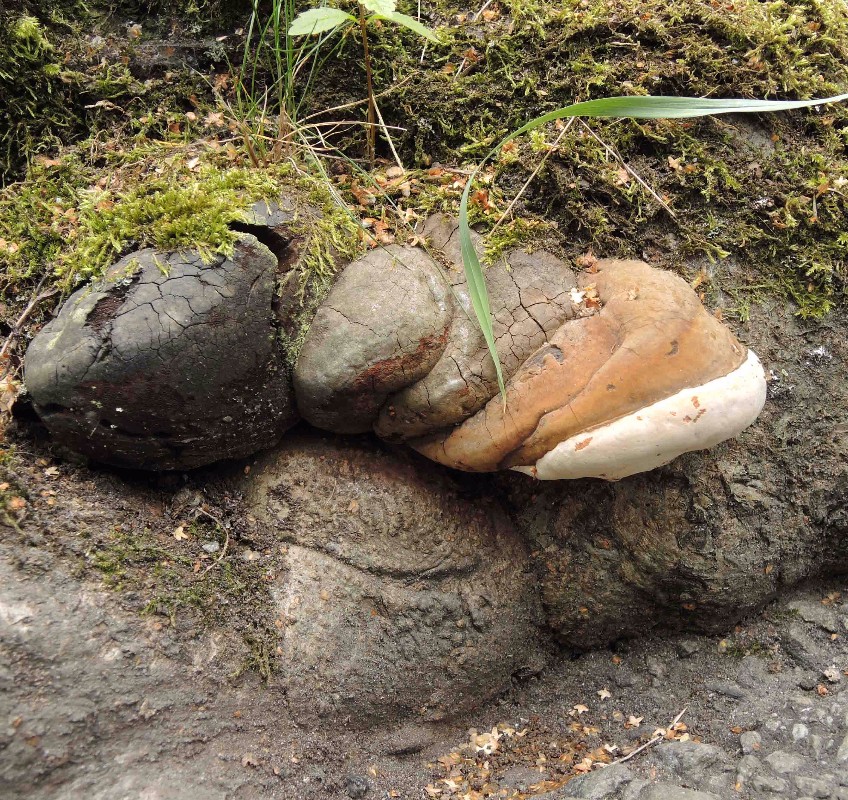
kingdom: Fungi
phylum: Basidiomycota
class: Agaricomycetes
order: Polyporales
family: Polyporaceae
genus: Ganoderma
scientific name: Ganoderma pfeifferi
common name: kobberrød lakporesvamp
